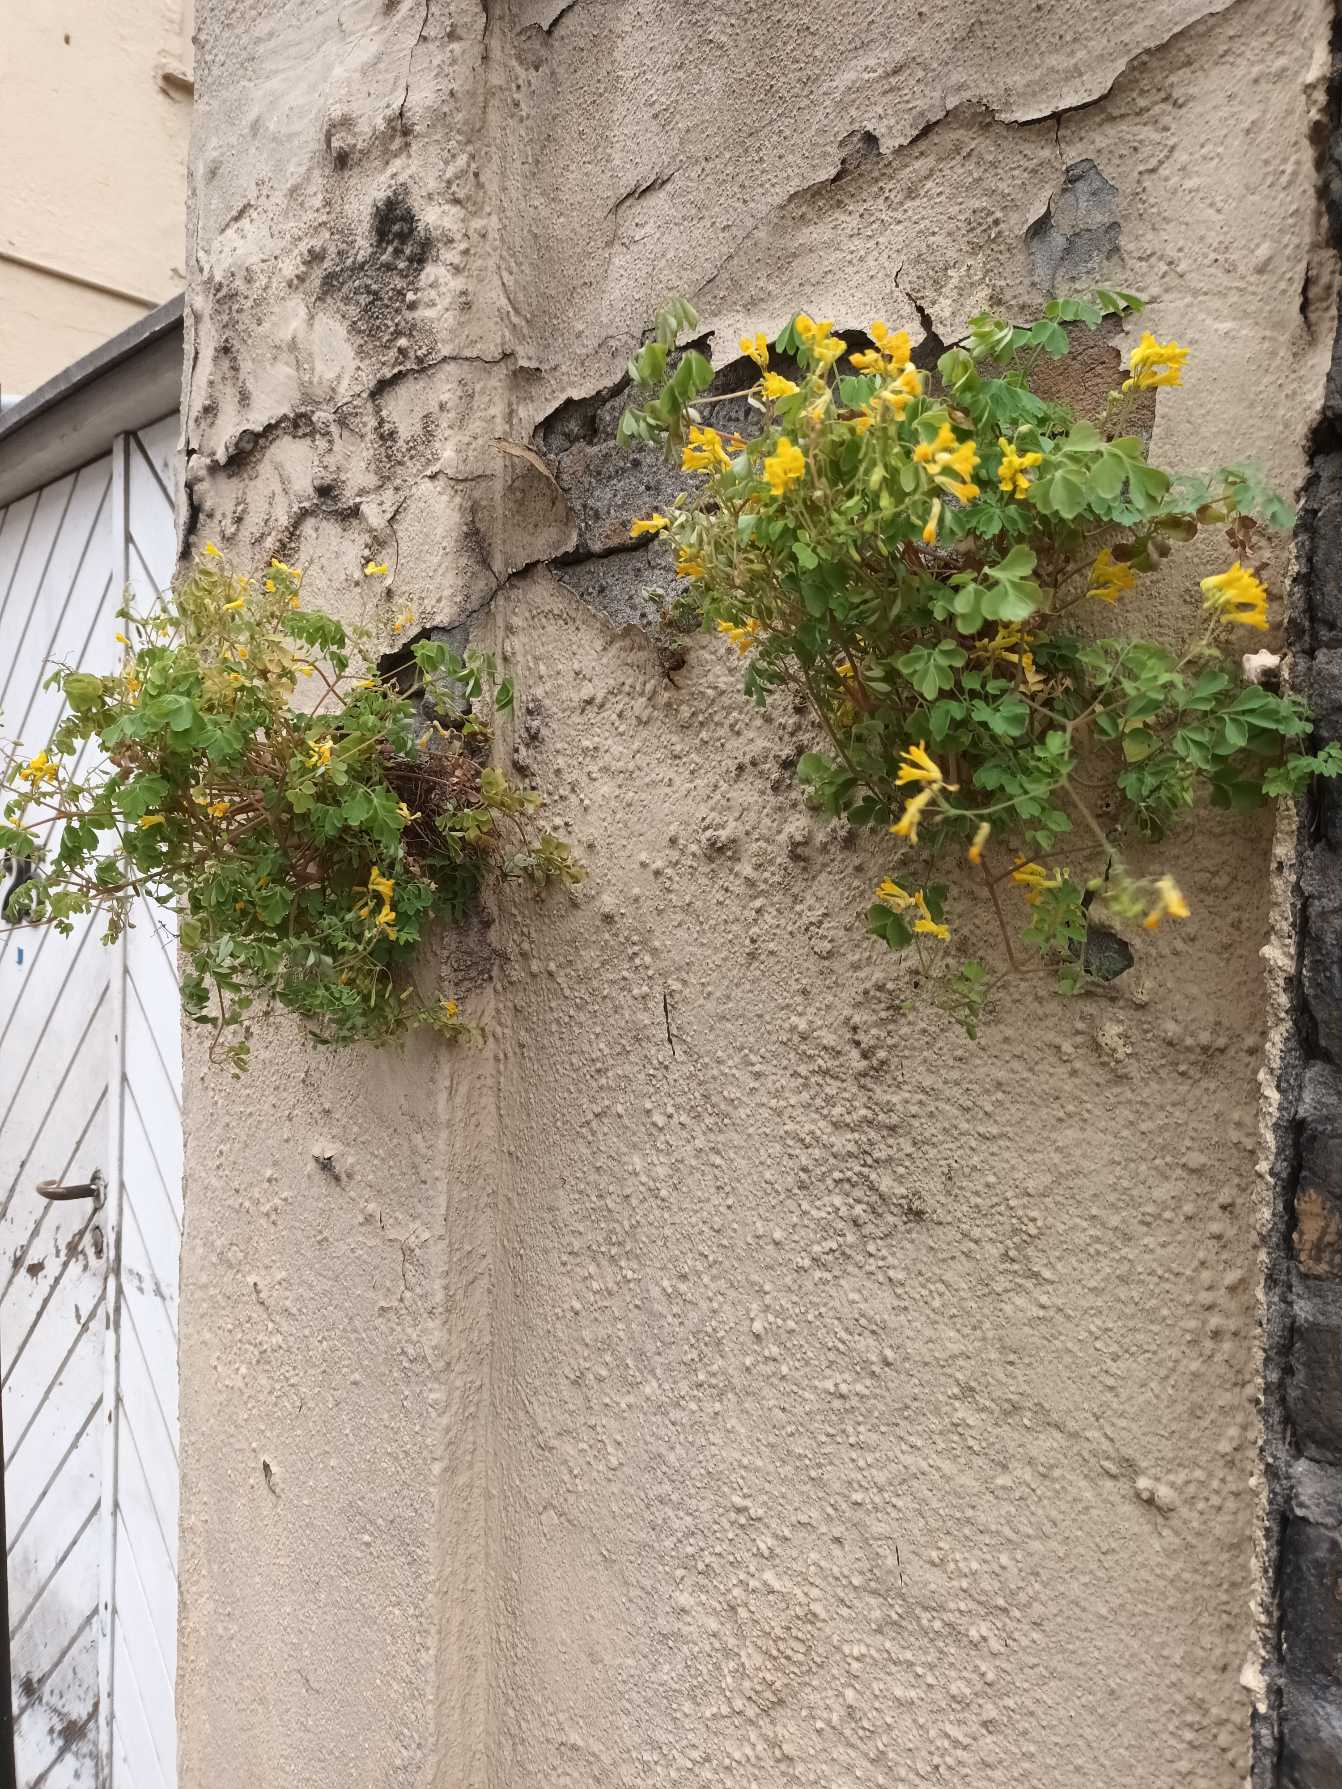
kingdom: Plantae
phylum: Tracheophyta
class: Magnoliopsida
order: Ranunculales
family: Papaveraceae
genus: Pseudofumaria
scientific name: Pseudofumaria lutea
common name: Gul lærkespore
